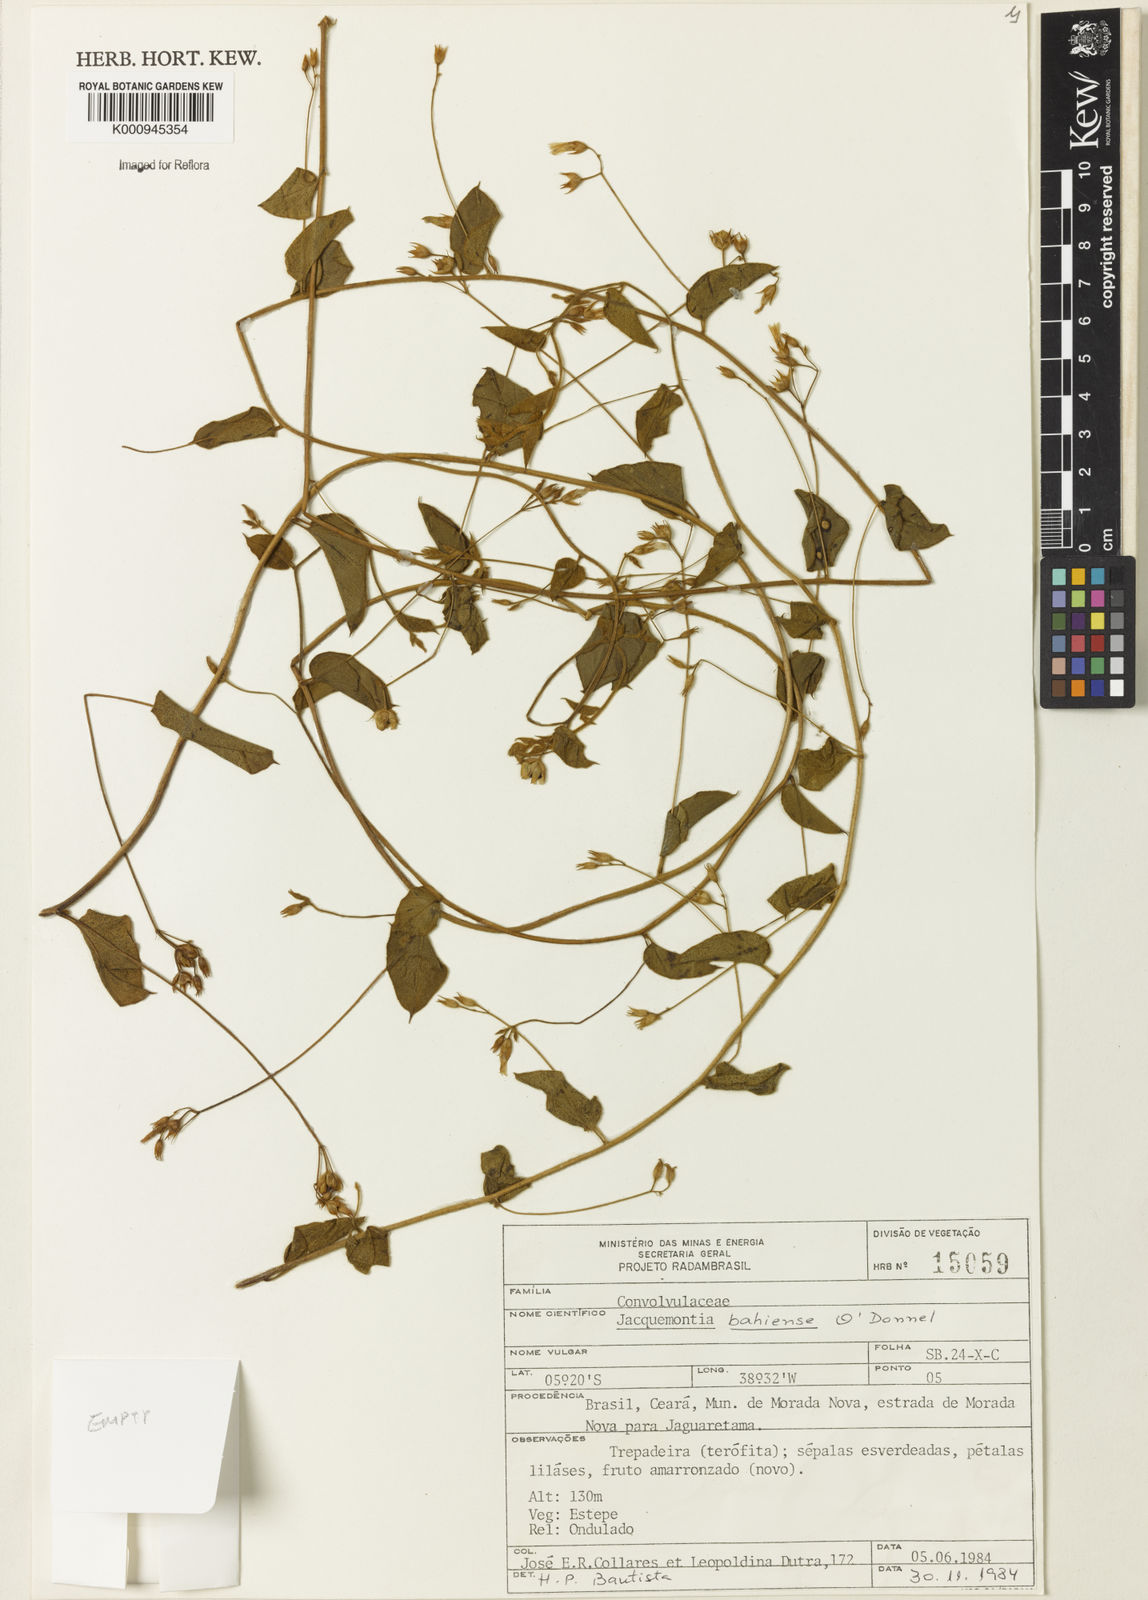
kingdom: Plantae
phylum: Tracheophyta
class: Magnoliopsida
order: Solanales
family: Convolvulaceae
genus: Jacquemontia
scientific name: Jacquemontia
